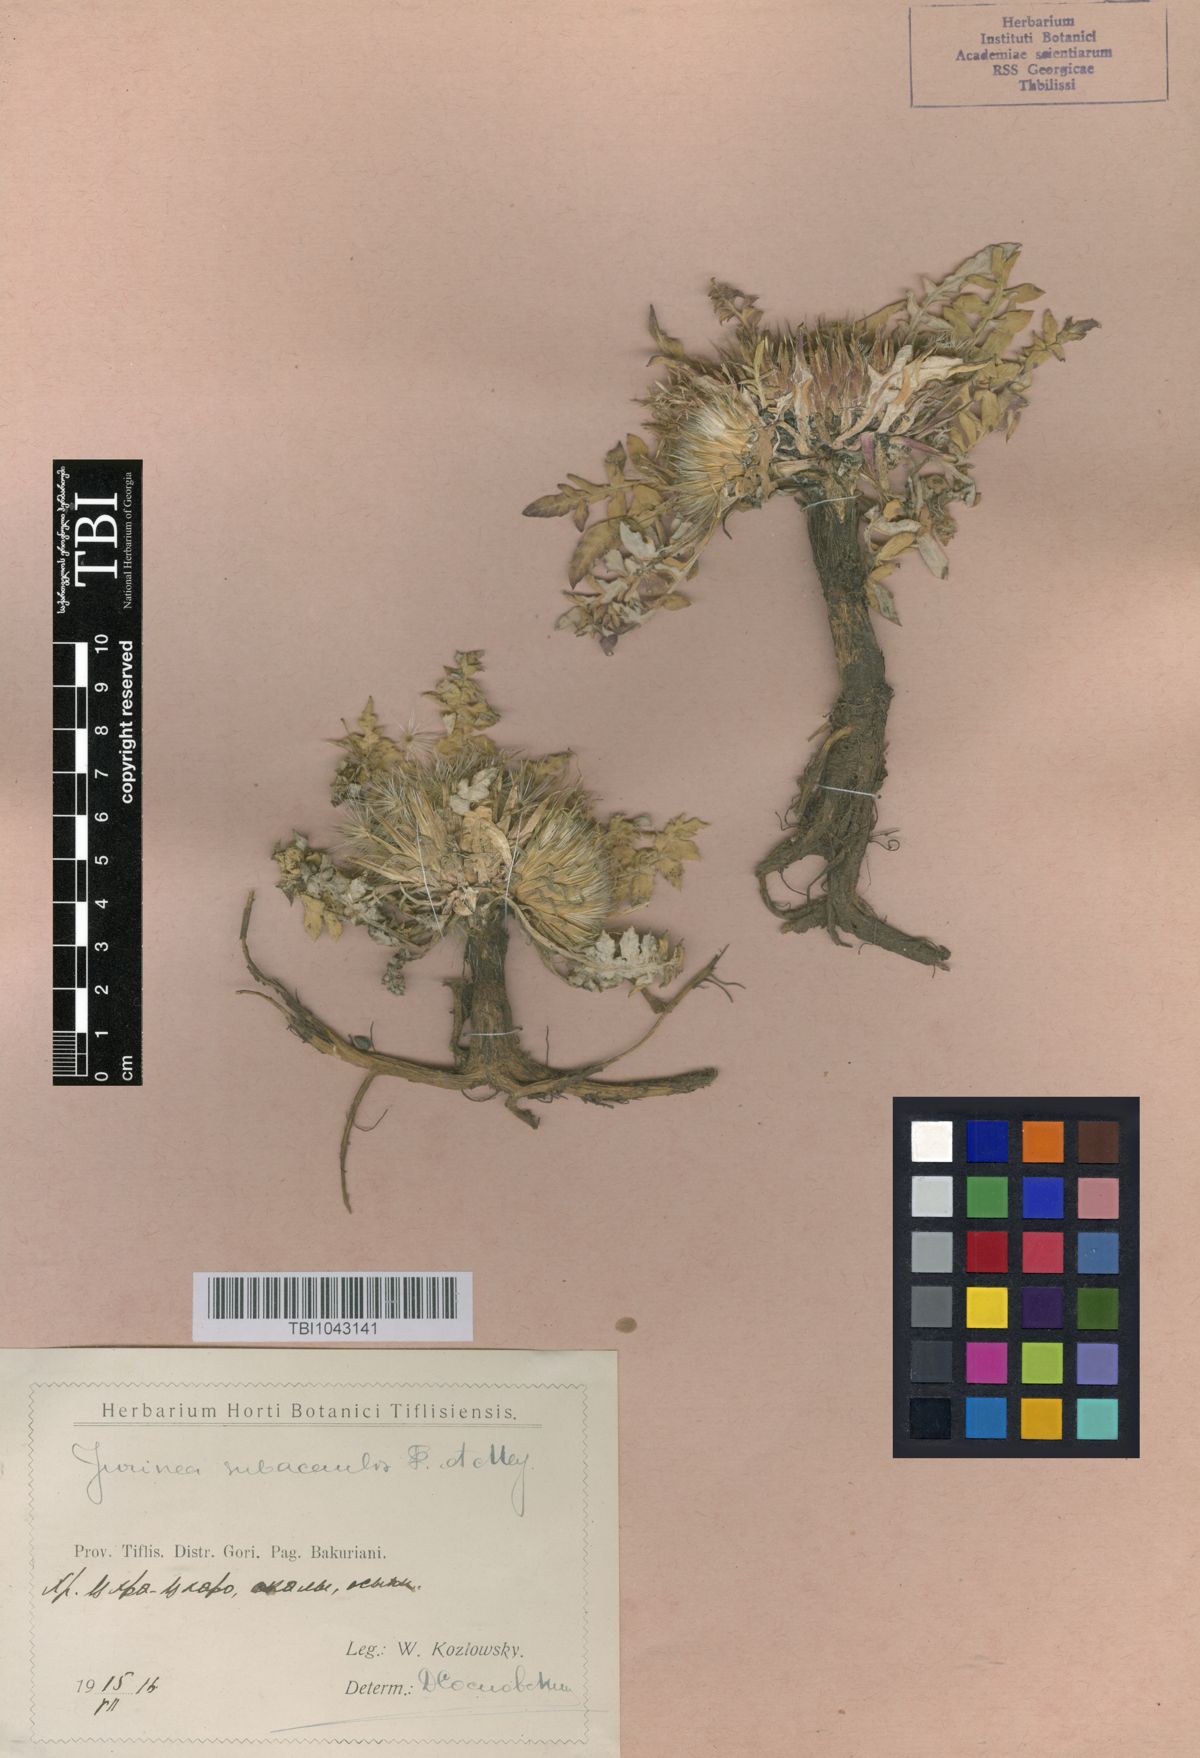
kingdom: Plantae
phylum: Tracheophyta
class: Magnoliopsida
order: Asterales
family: Asteraceae
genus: Jurinea
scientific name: Jurinea moschus
